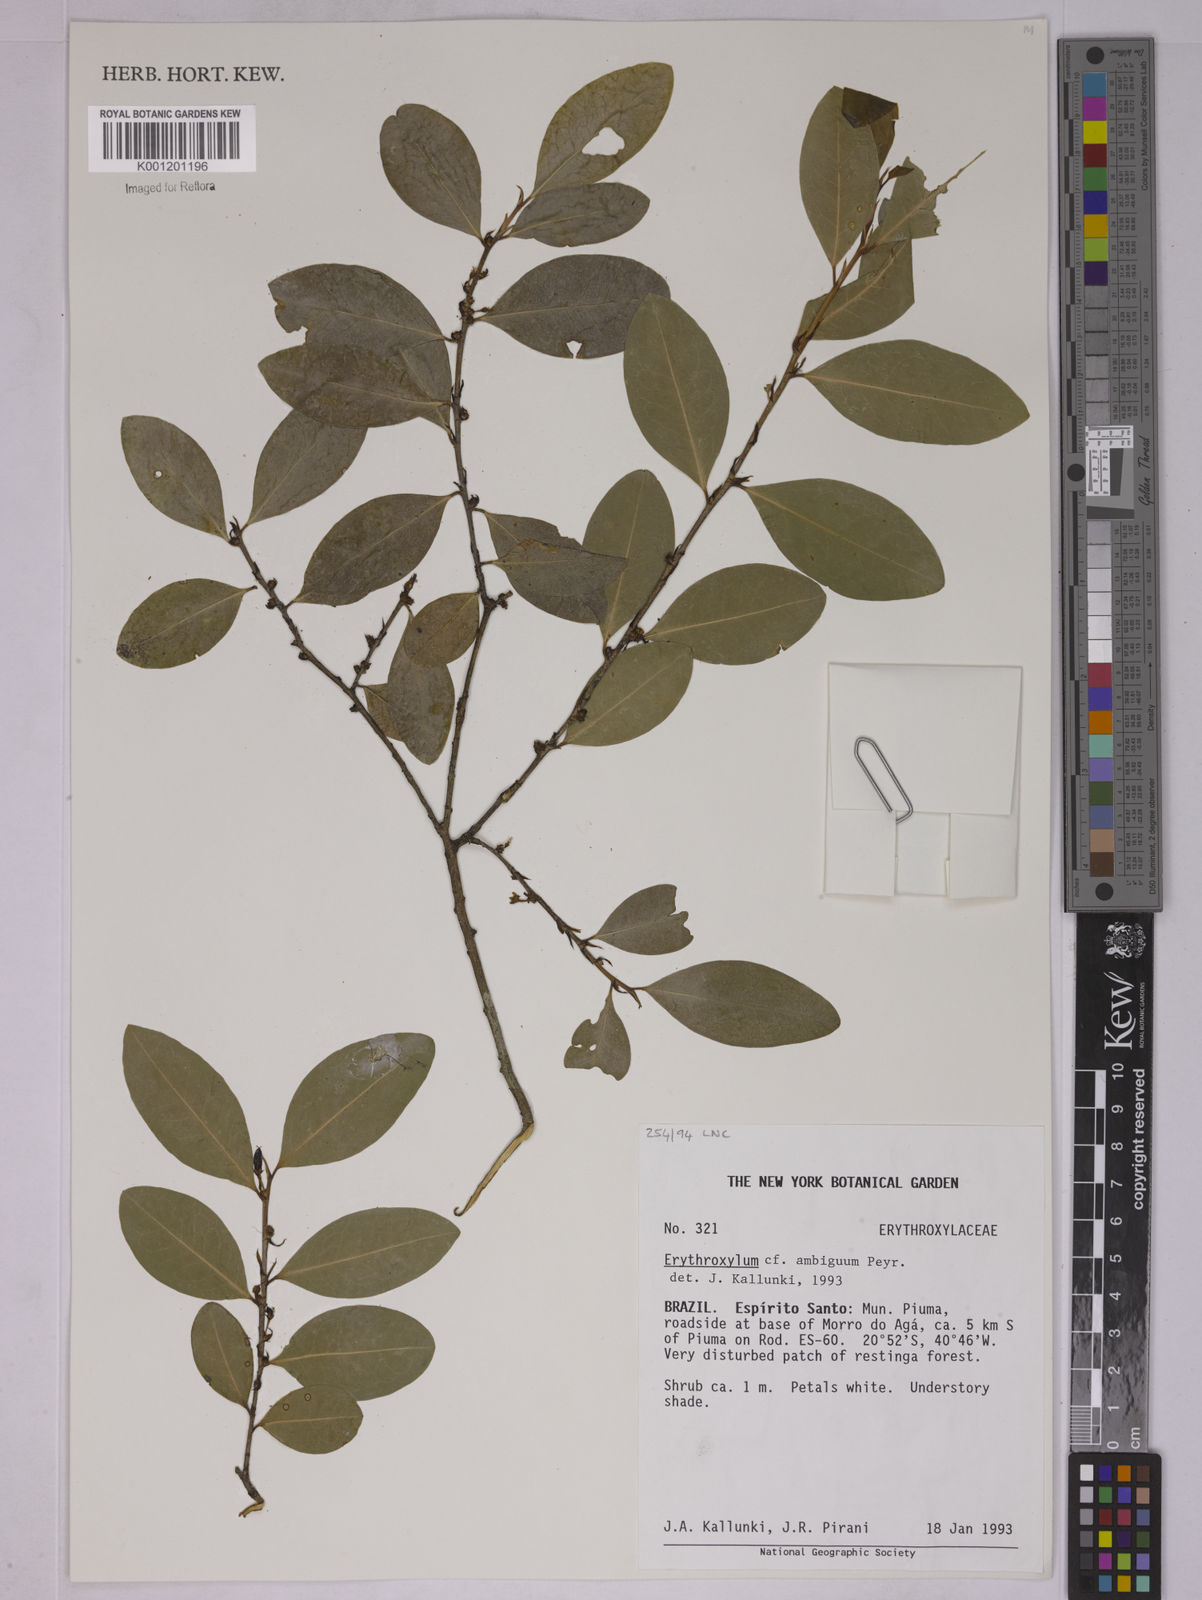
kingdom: Plantae
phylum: Tracheophyta
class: Magnoliopsida
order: Malpighiales
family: Erythroxylaceae
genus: Erythroxylum
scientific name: Erythroxylum ambiguum
